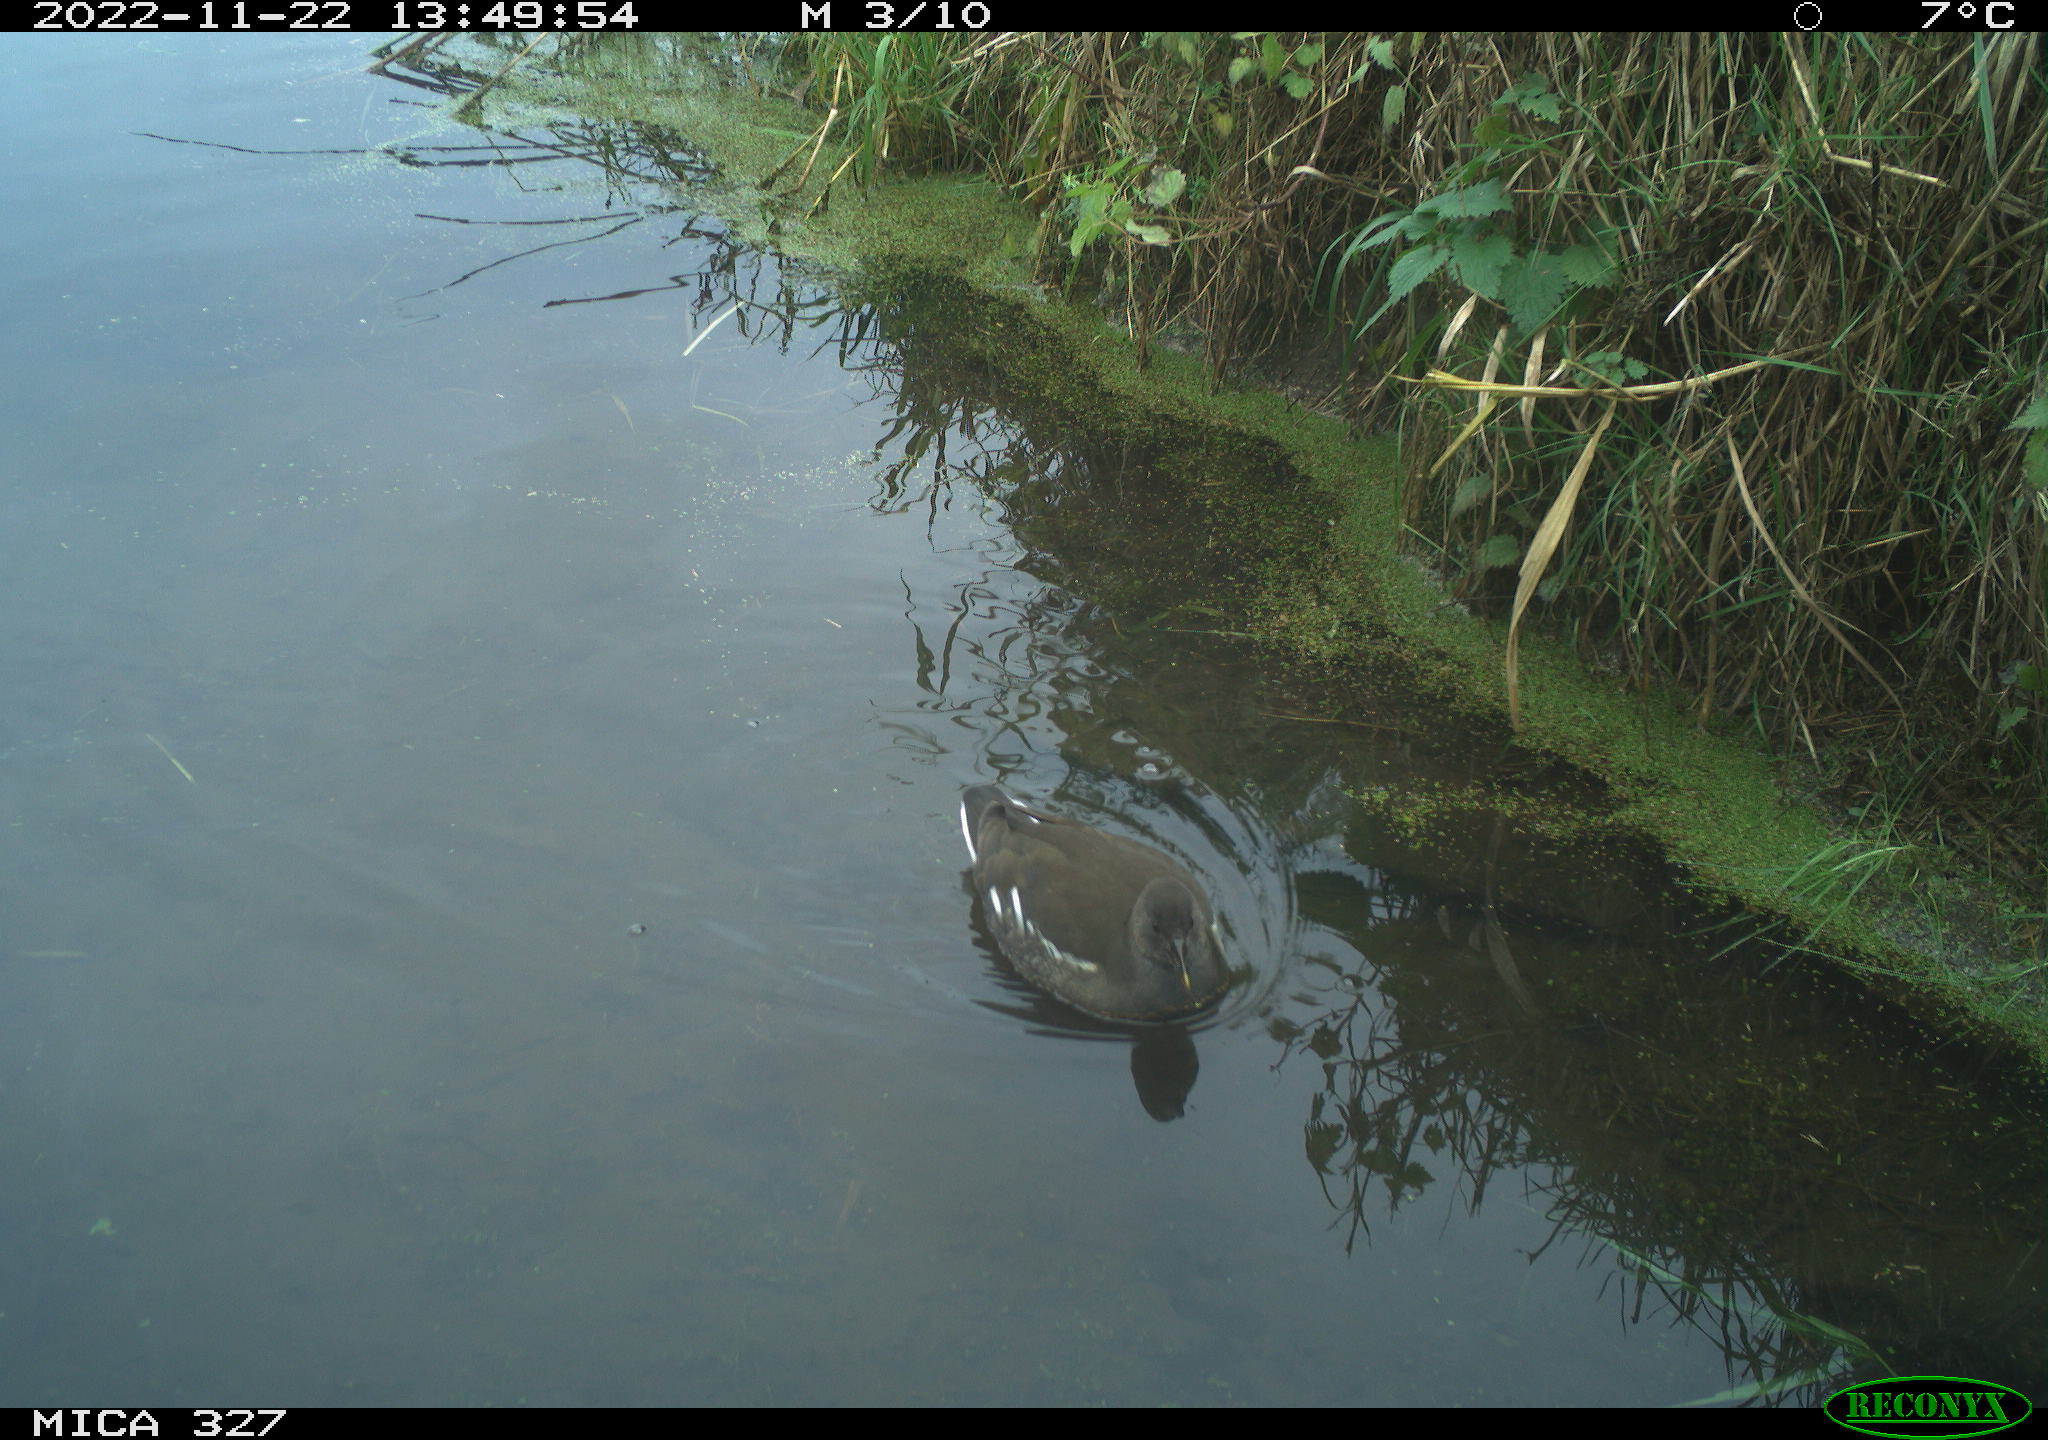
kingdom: Animalia
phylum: Chordata
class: Aves
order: Gruiformes
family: Rallidae
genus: Gallinula
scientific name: Gallinula chloropus
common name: Common moorhen
